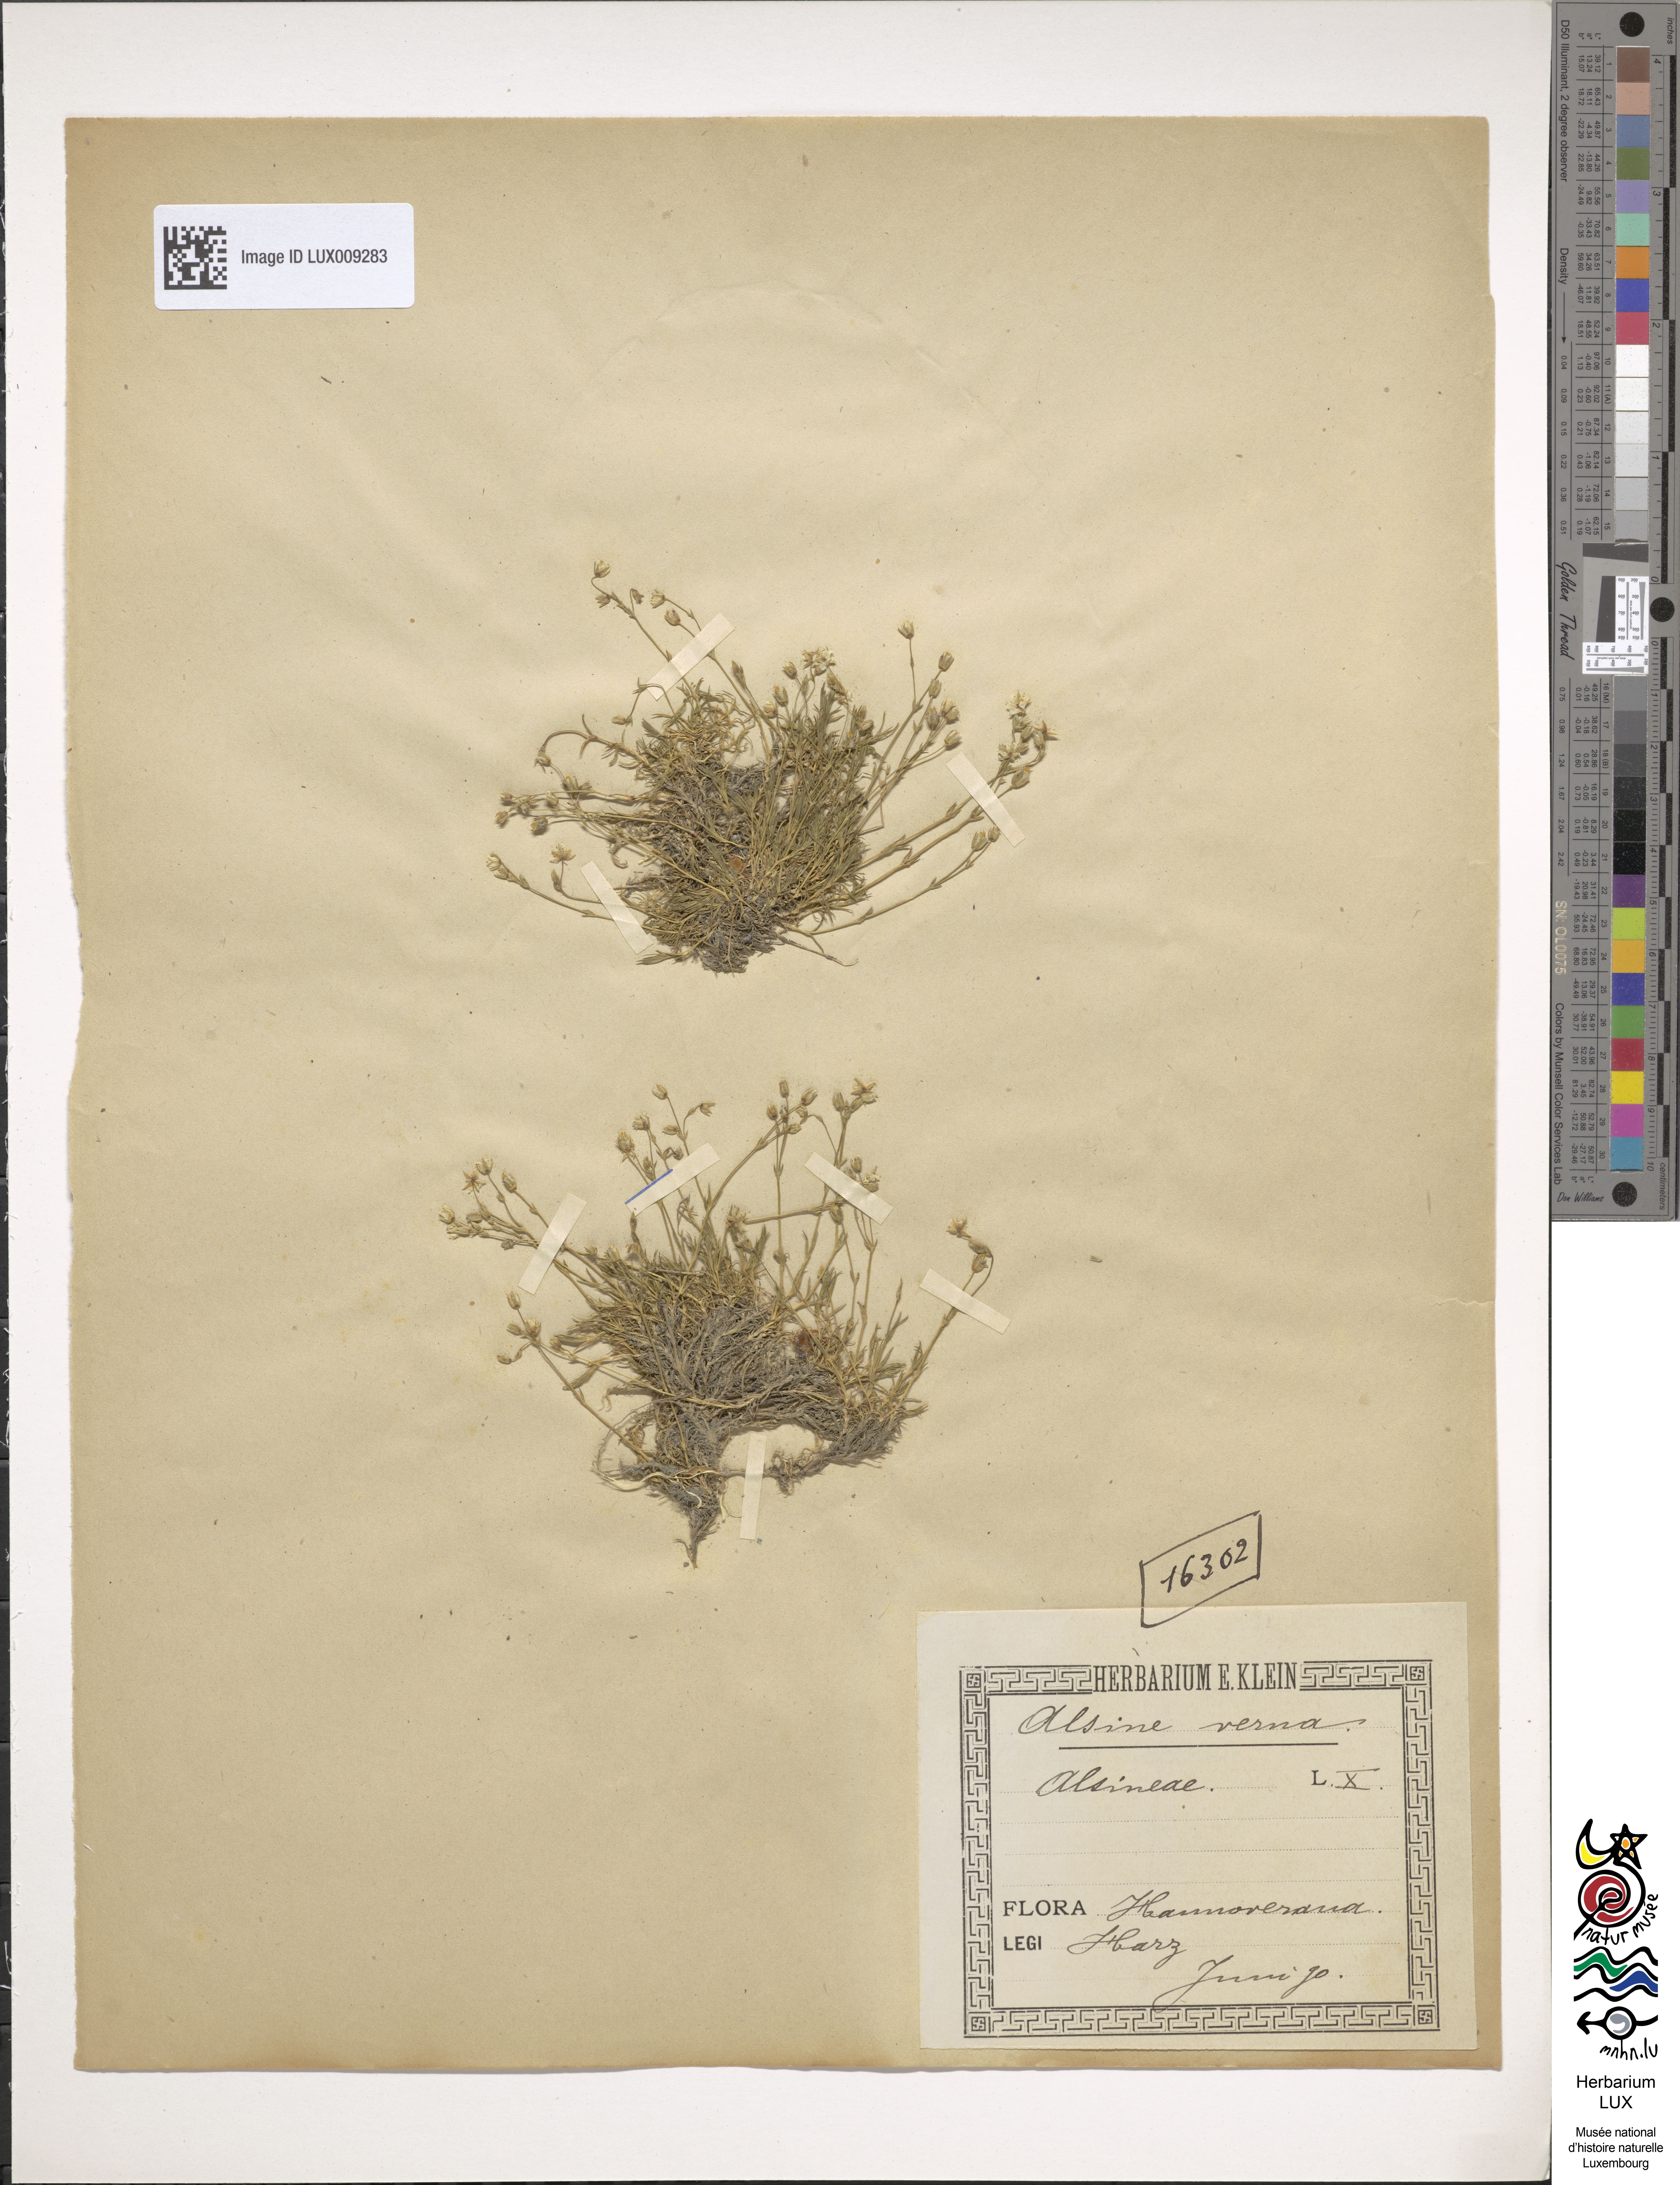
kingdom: Plantae
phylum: Tracheophyta
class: Magnoliopsida
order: Caryophyllales
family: Caryophyllaceae
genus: Sabulina
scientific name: Sabulina verna
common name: Spring sandwort
